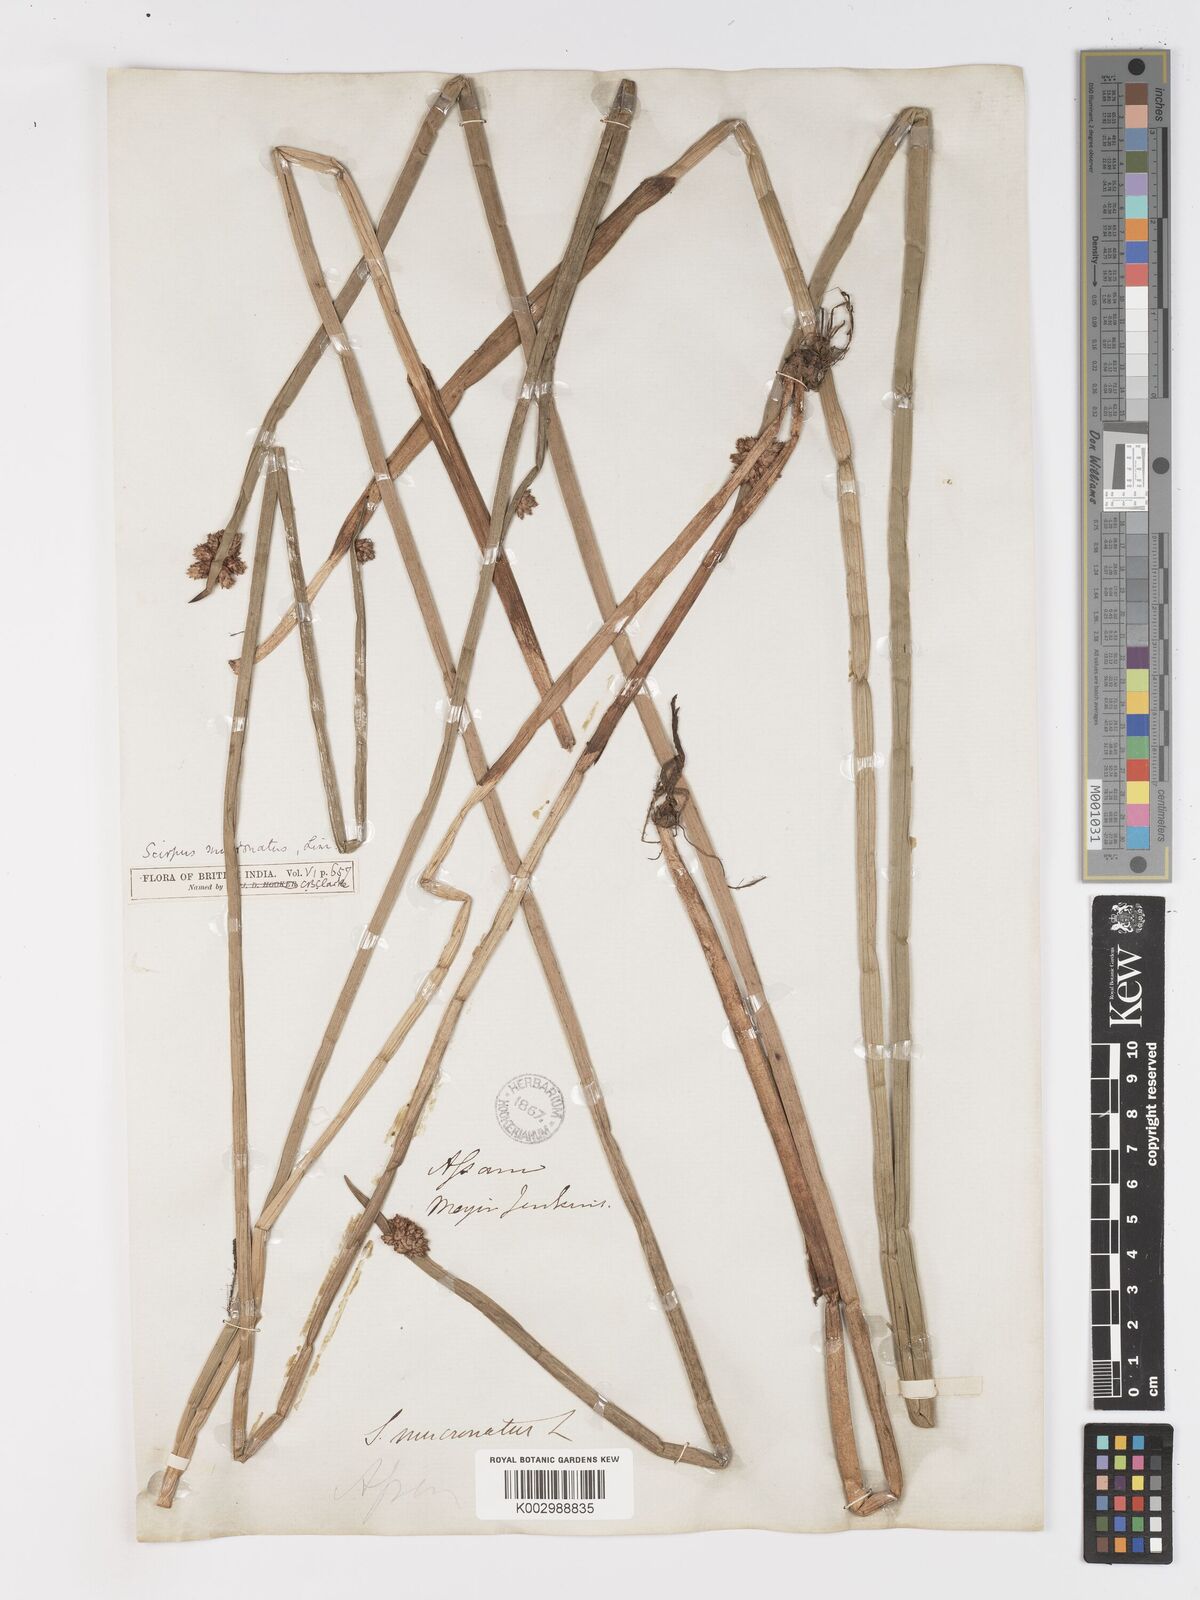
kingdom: Plantae
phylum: Tracheophyta
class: Liliopsida
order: Poales
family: Cyperaceae
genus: Schoenoplectiella
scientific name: Schoenoplectiella mucronata
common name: Bog bulrush
